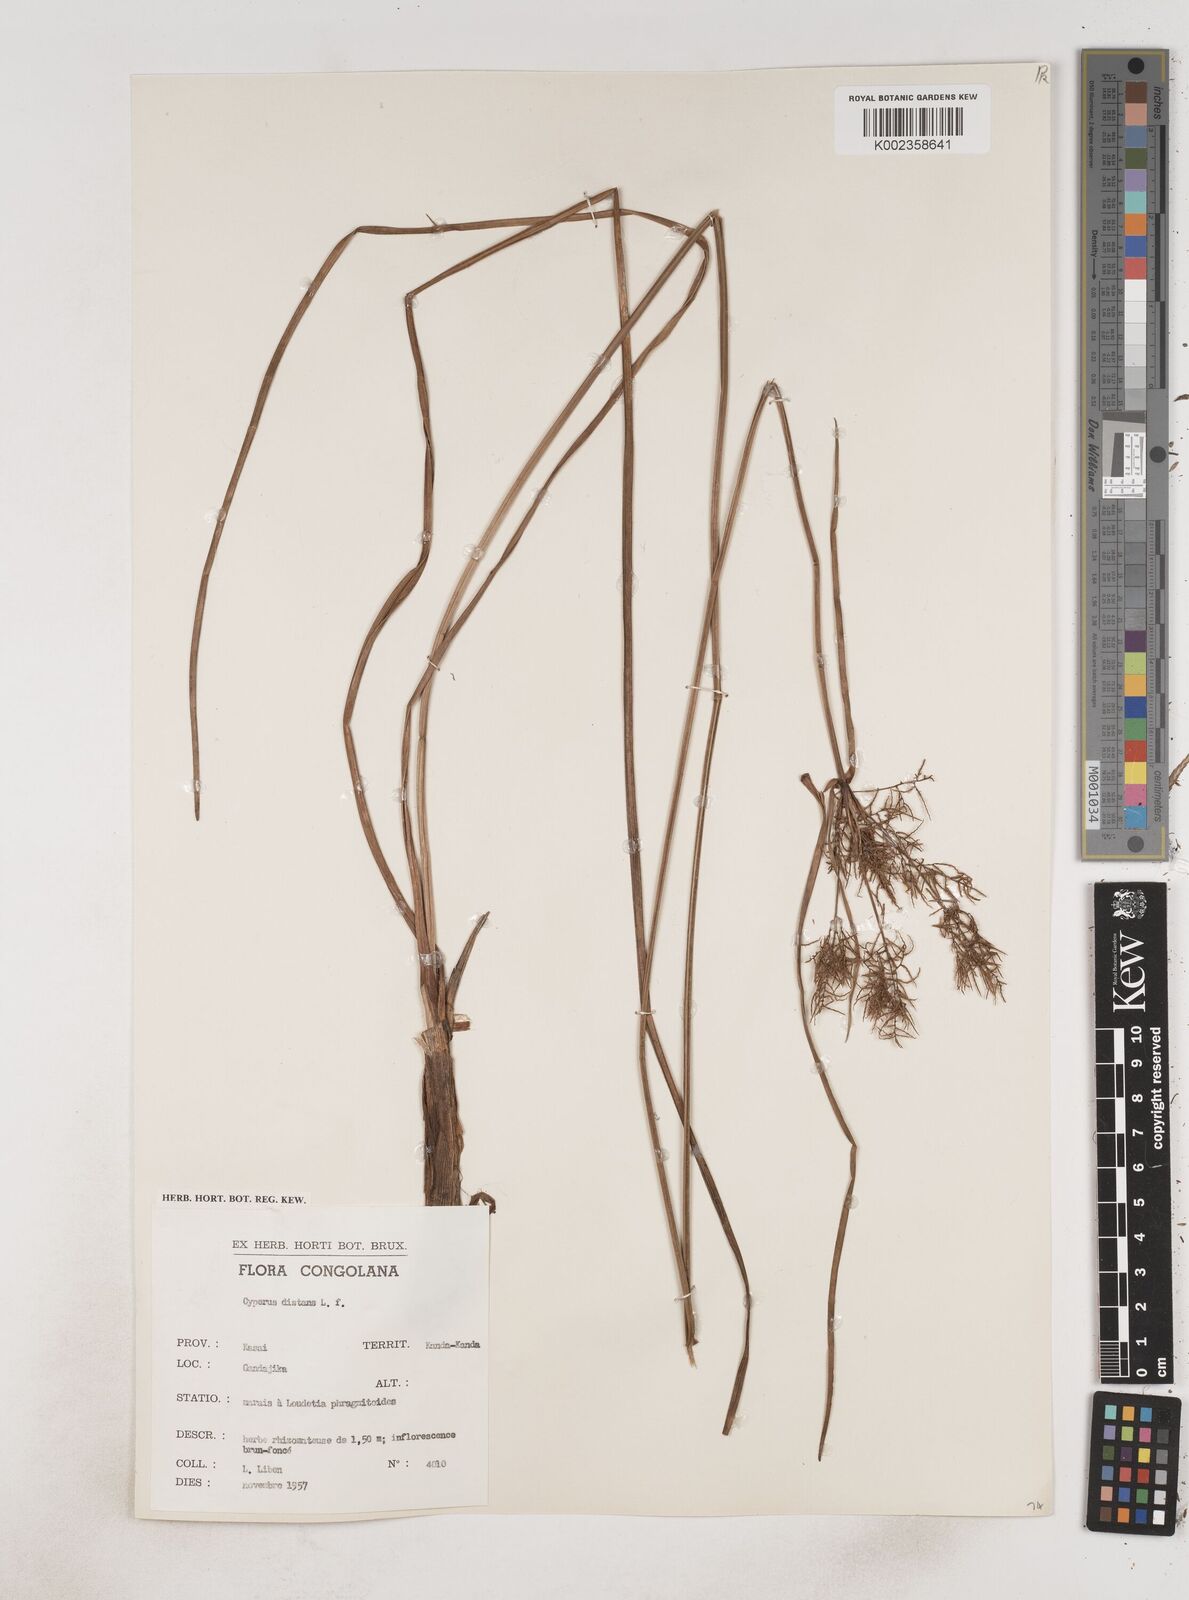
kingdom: Plantae
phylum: Tracheophyta
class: Liliopsida
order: Poales
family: Cyperaceae
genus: Cyperus
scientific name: Cyperus distans
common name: Slender cyperus
